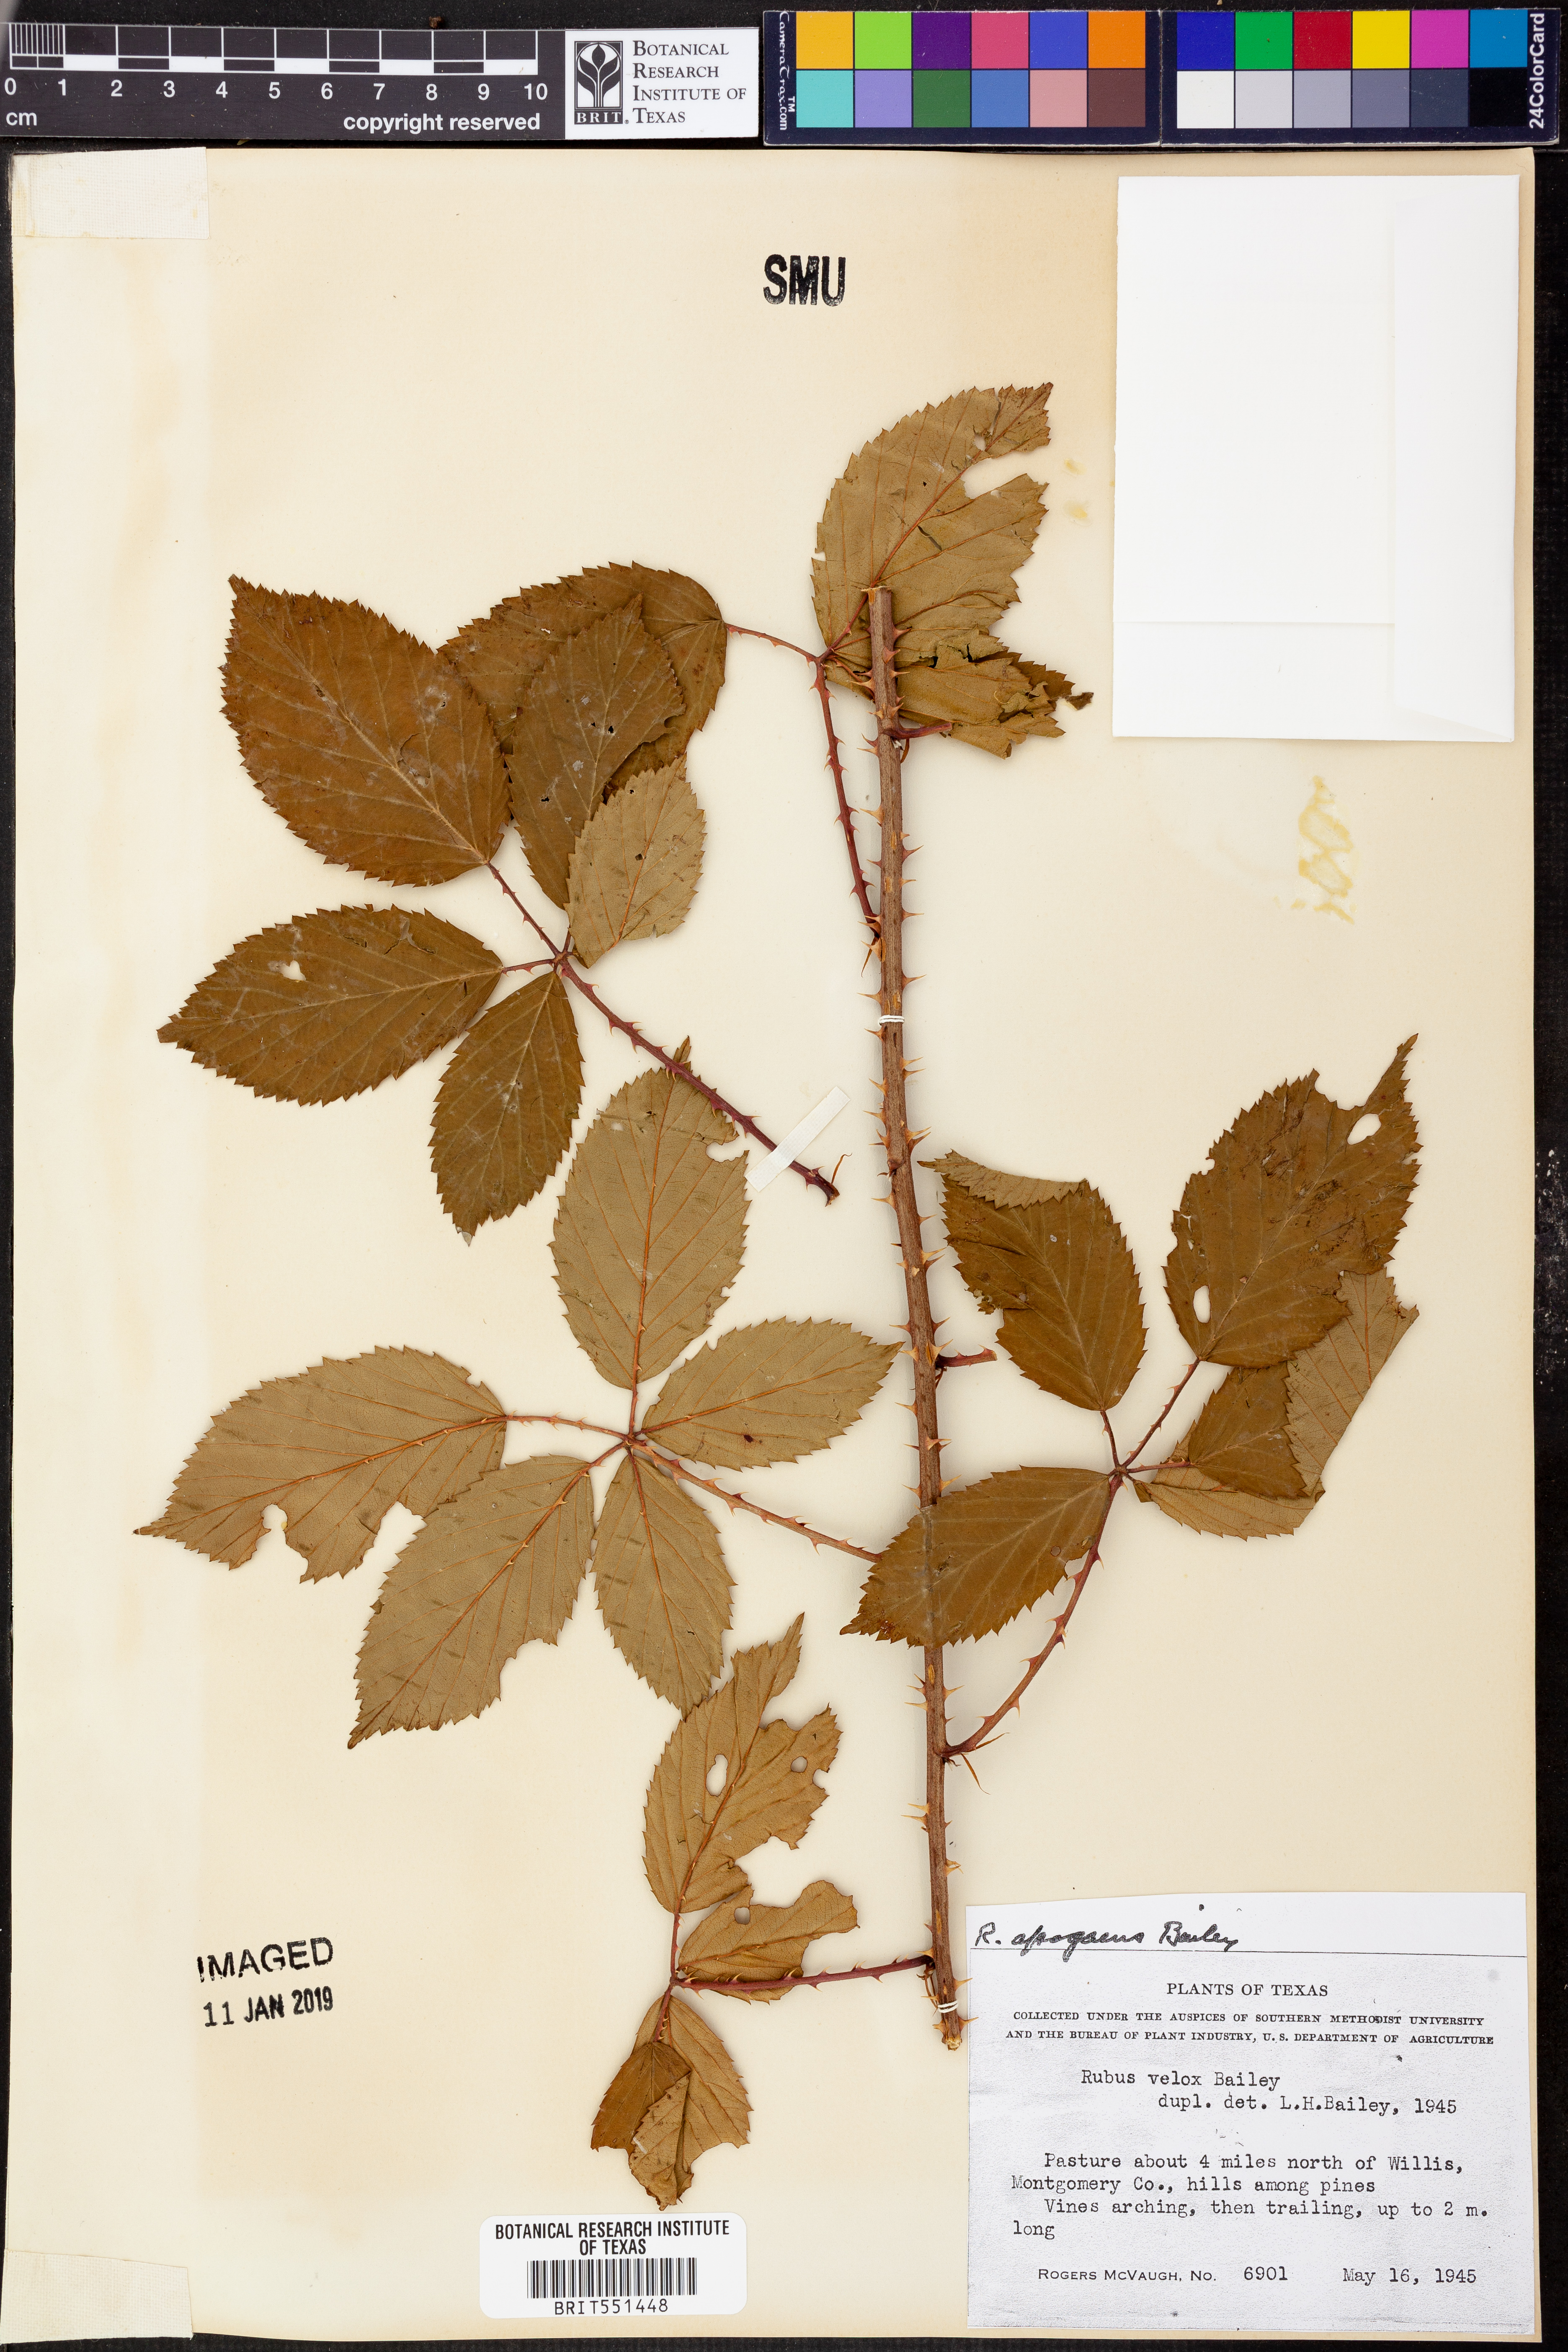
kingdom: Plantae
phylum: Tracheophyta
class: Magnoliopsida
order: Rosales
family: Rosaceae
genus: Rubus
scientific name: Rubus apogaeus
